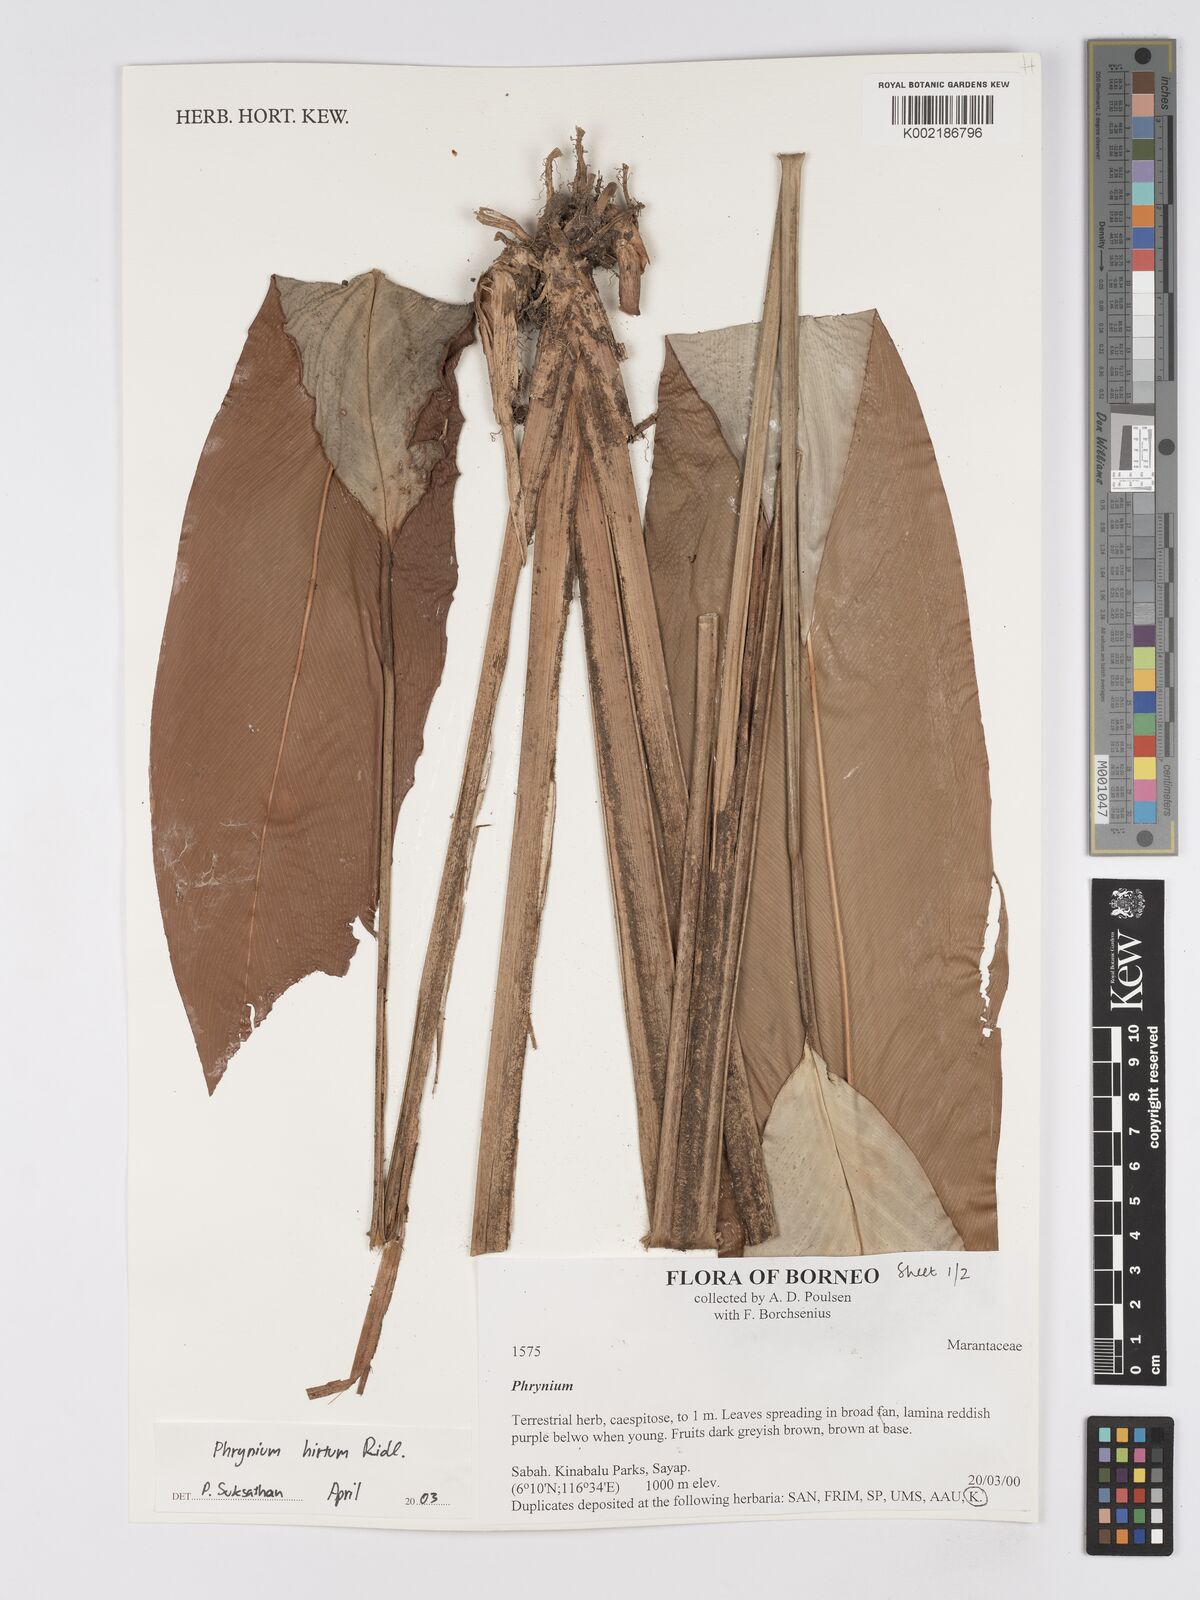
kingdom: Plantae
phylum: Tracheophyta
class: Liliopsida
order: Zingiberales
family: Marantaceae
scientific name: Marantaceae
